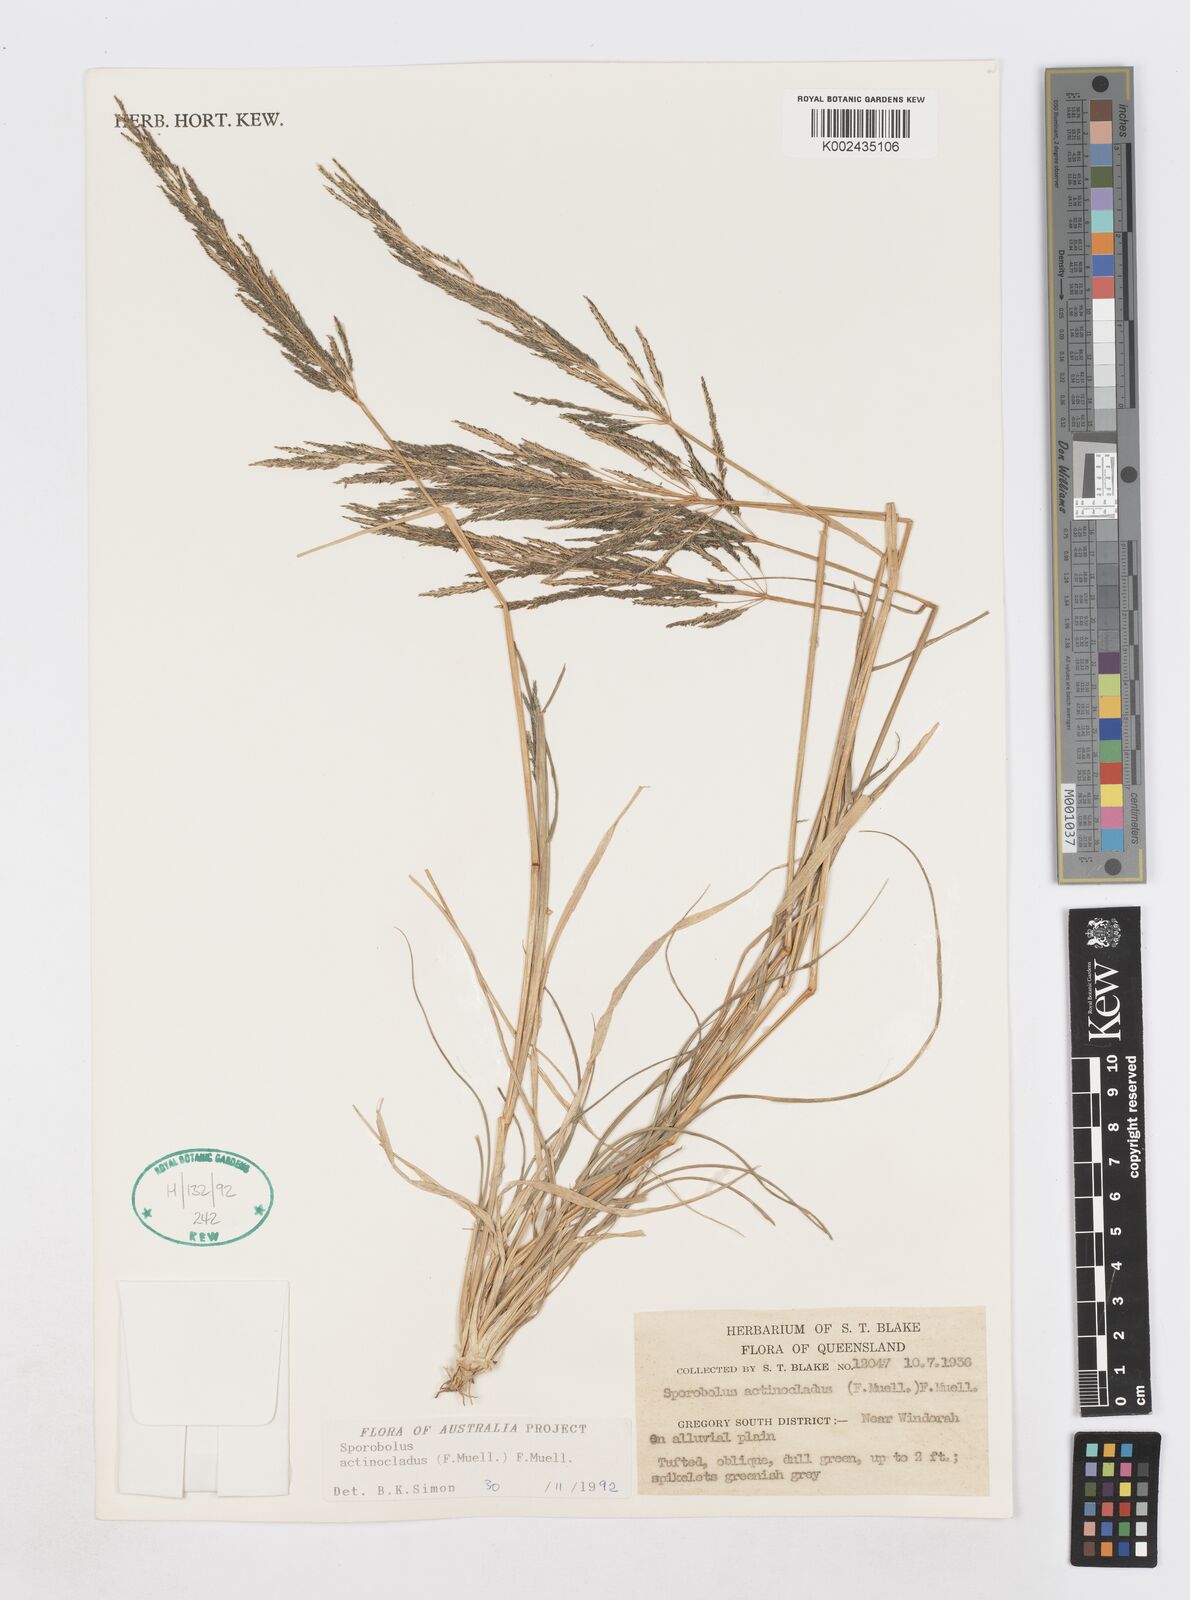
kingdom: Plantae
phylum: Tracheophyta
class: Liliopsida
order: Poales
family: Poaceae
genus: Sporobolus
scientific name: Sporobolus actinocladus
